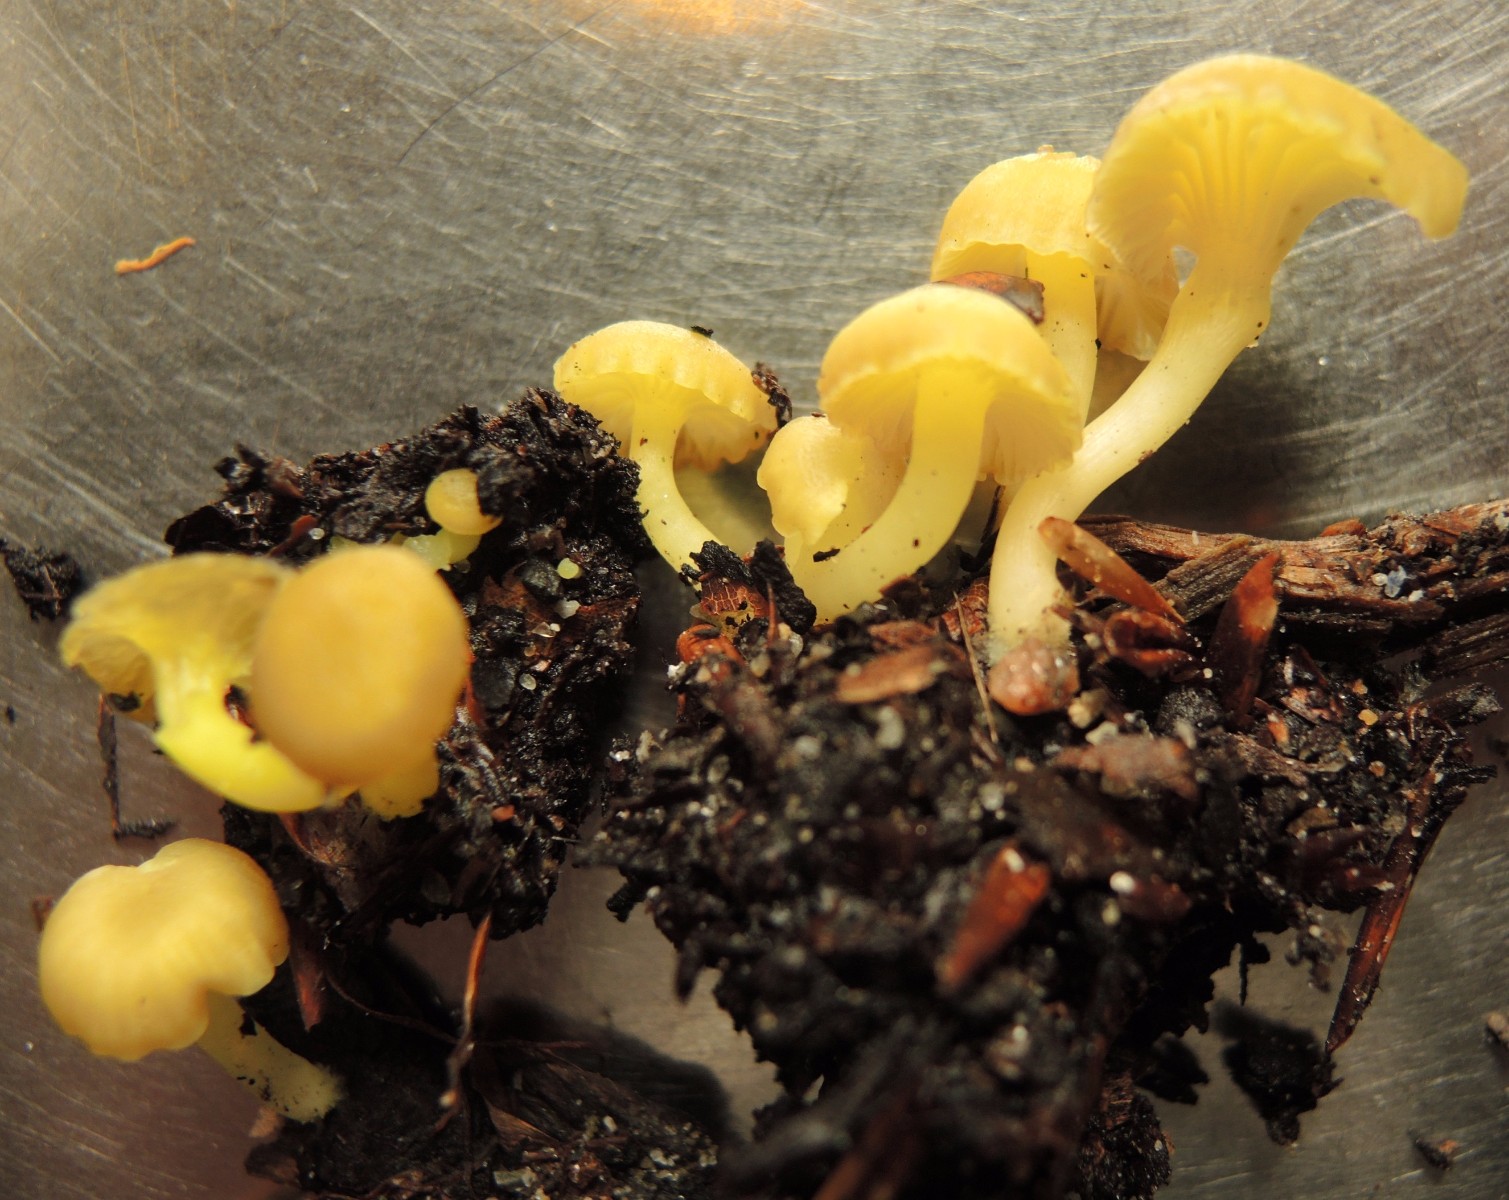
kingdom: Fungi
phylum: Basidiomycota
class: Agaricomycetes
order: Agaricales
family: Hygrophoraceae
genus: Chrysomphalina
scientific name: Chrysomphalina grossula
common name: stød-gyldenblad
